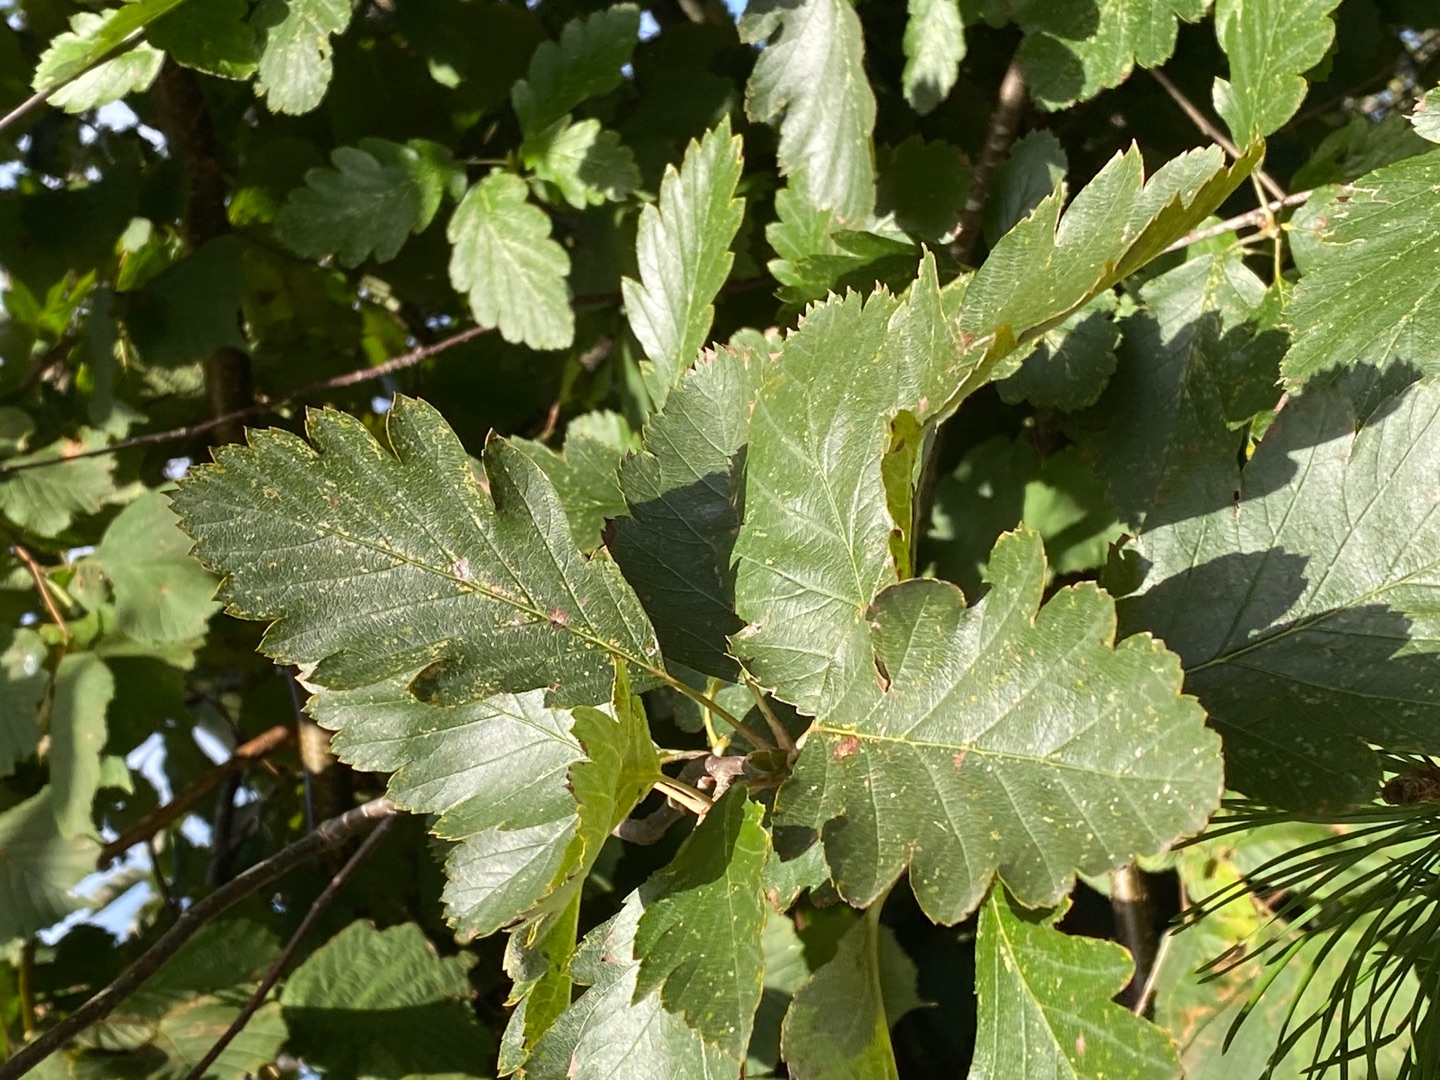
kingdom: Plantae
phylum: Tracheophyta
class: Magnoliopsida
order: Rosales
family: Rosaceae
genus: Scandosorbus
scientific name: Scandosorbus intermedia
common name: Selje-røn
